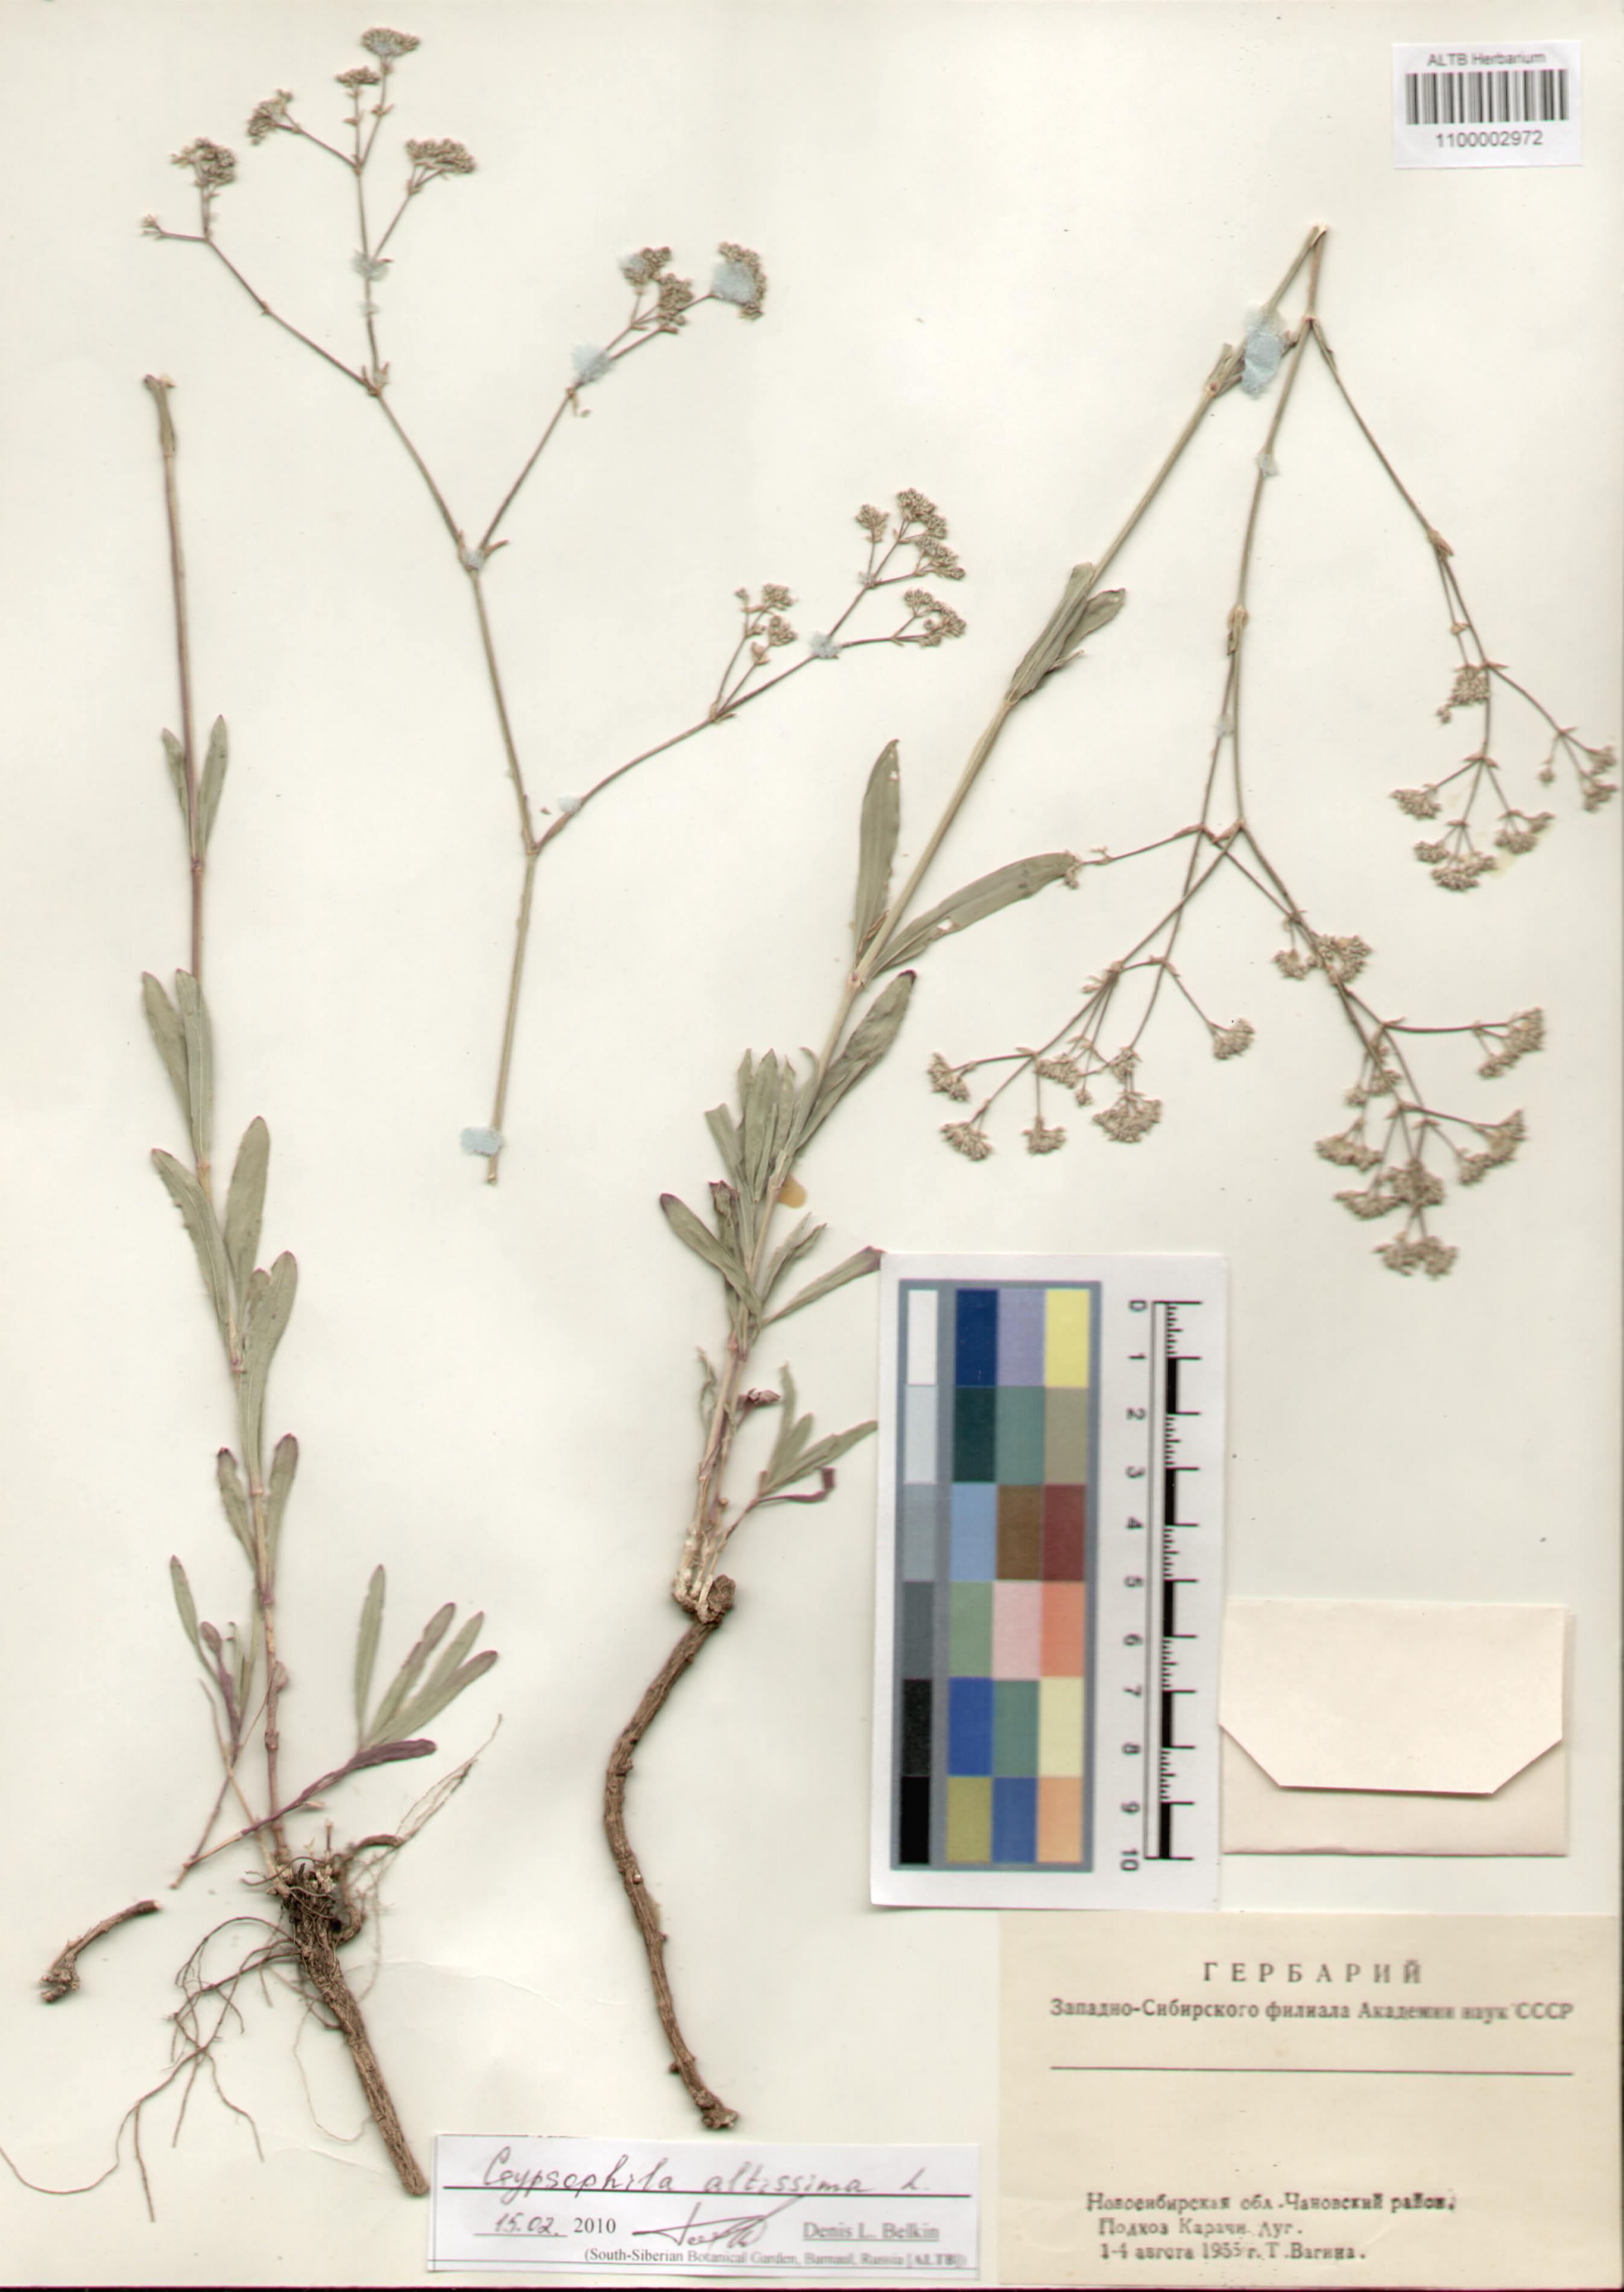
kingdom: Plantae
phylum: Tracheophyta
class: Magnoliopsida
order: Caryophyllales
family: Caryophyllaceae
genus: Gypsophila
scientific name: Gypsophila altissima
